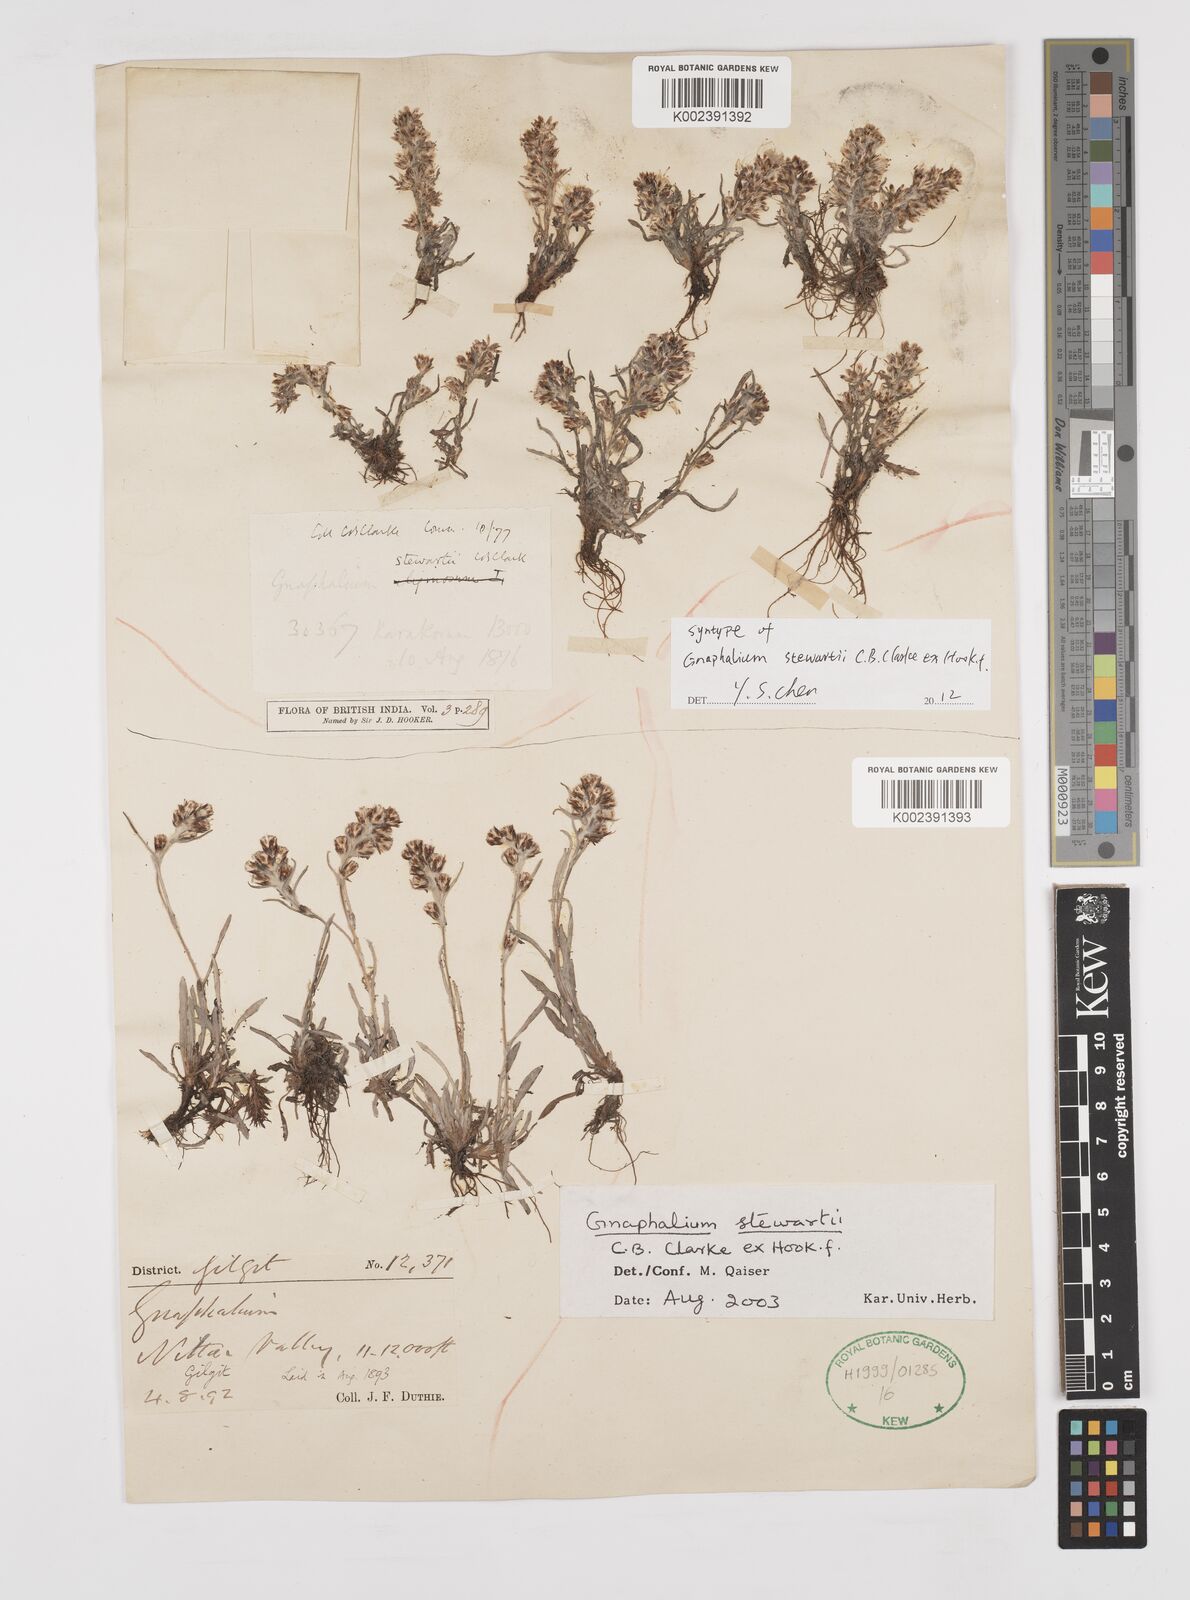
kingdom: Plantae
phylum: Tracheophyta
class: Magnoliopsida
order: Asterales
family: Asteraceae
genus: Gnaphalium
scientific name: Gnaphalium stewartii
